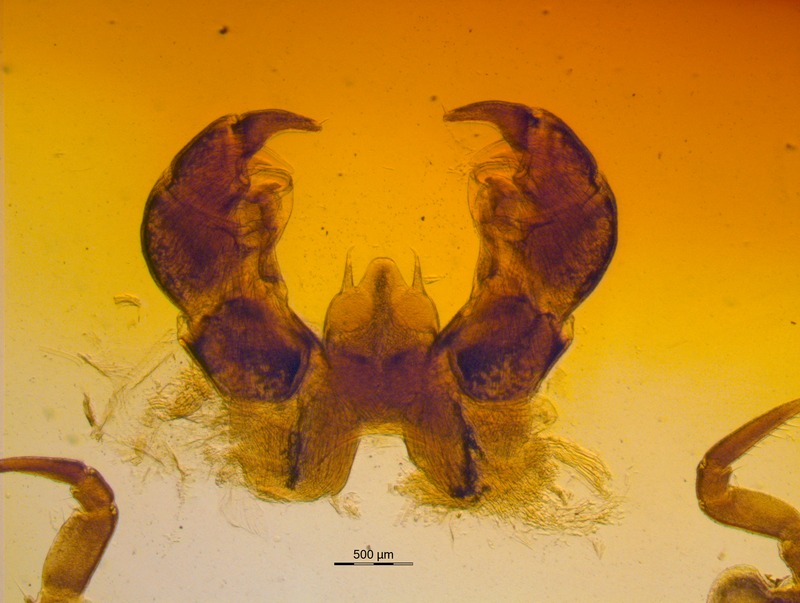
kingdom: Animalia
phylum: Arthropoda
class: Diplopoda
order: Glomerida
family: Glomeridae
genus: Glomeris
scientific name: Glomeris romana
